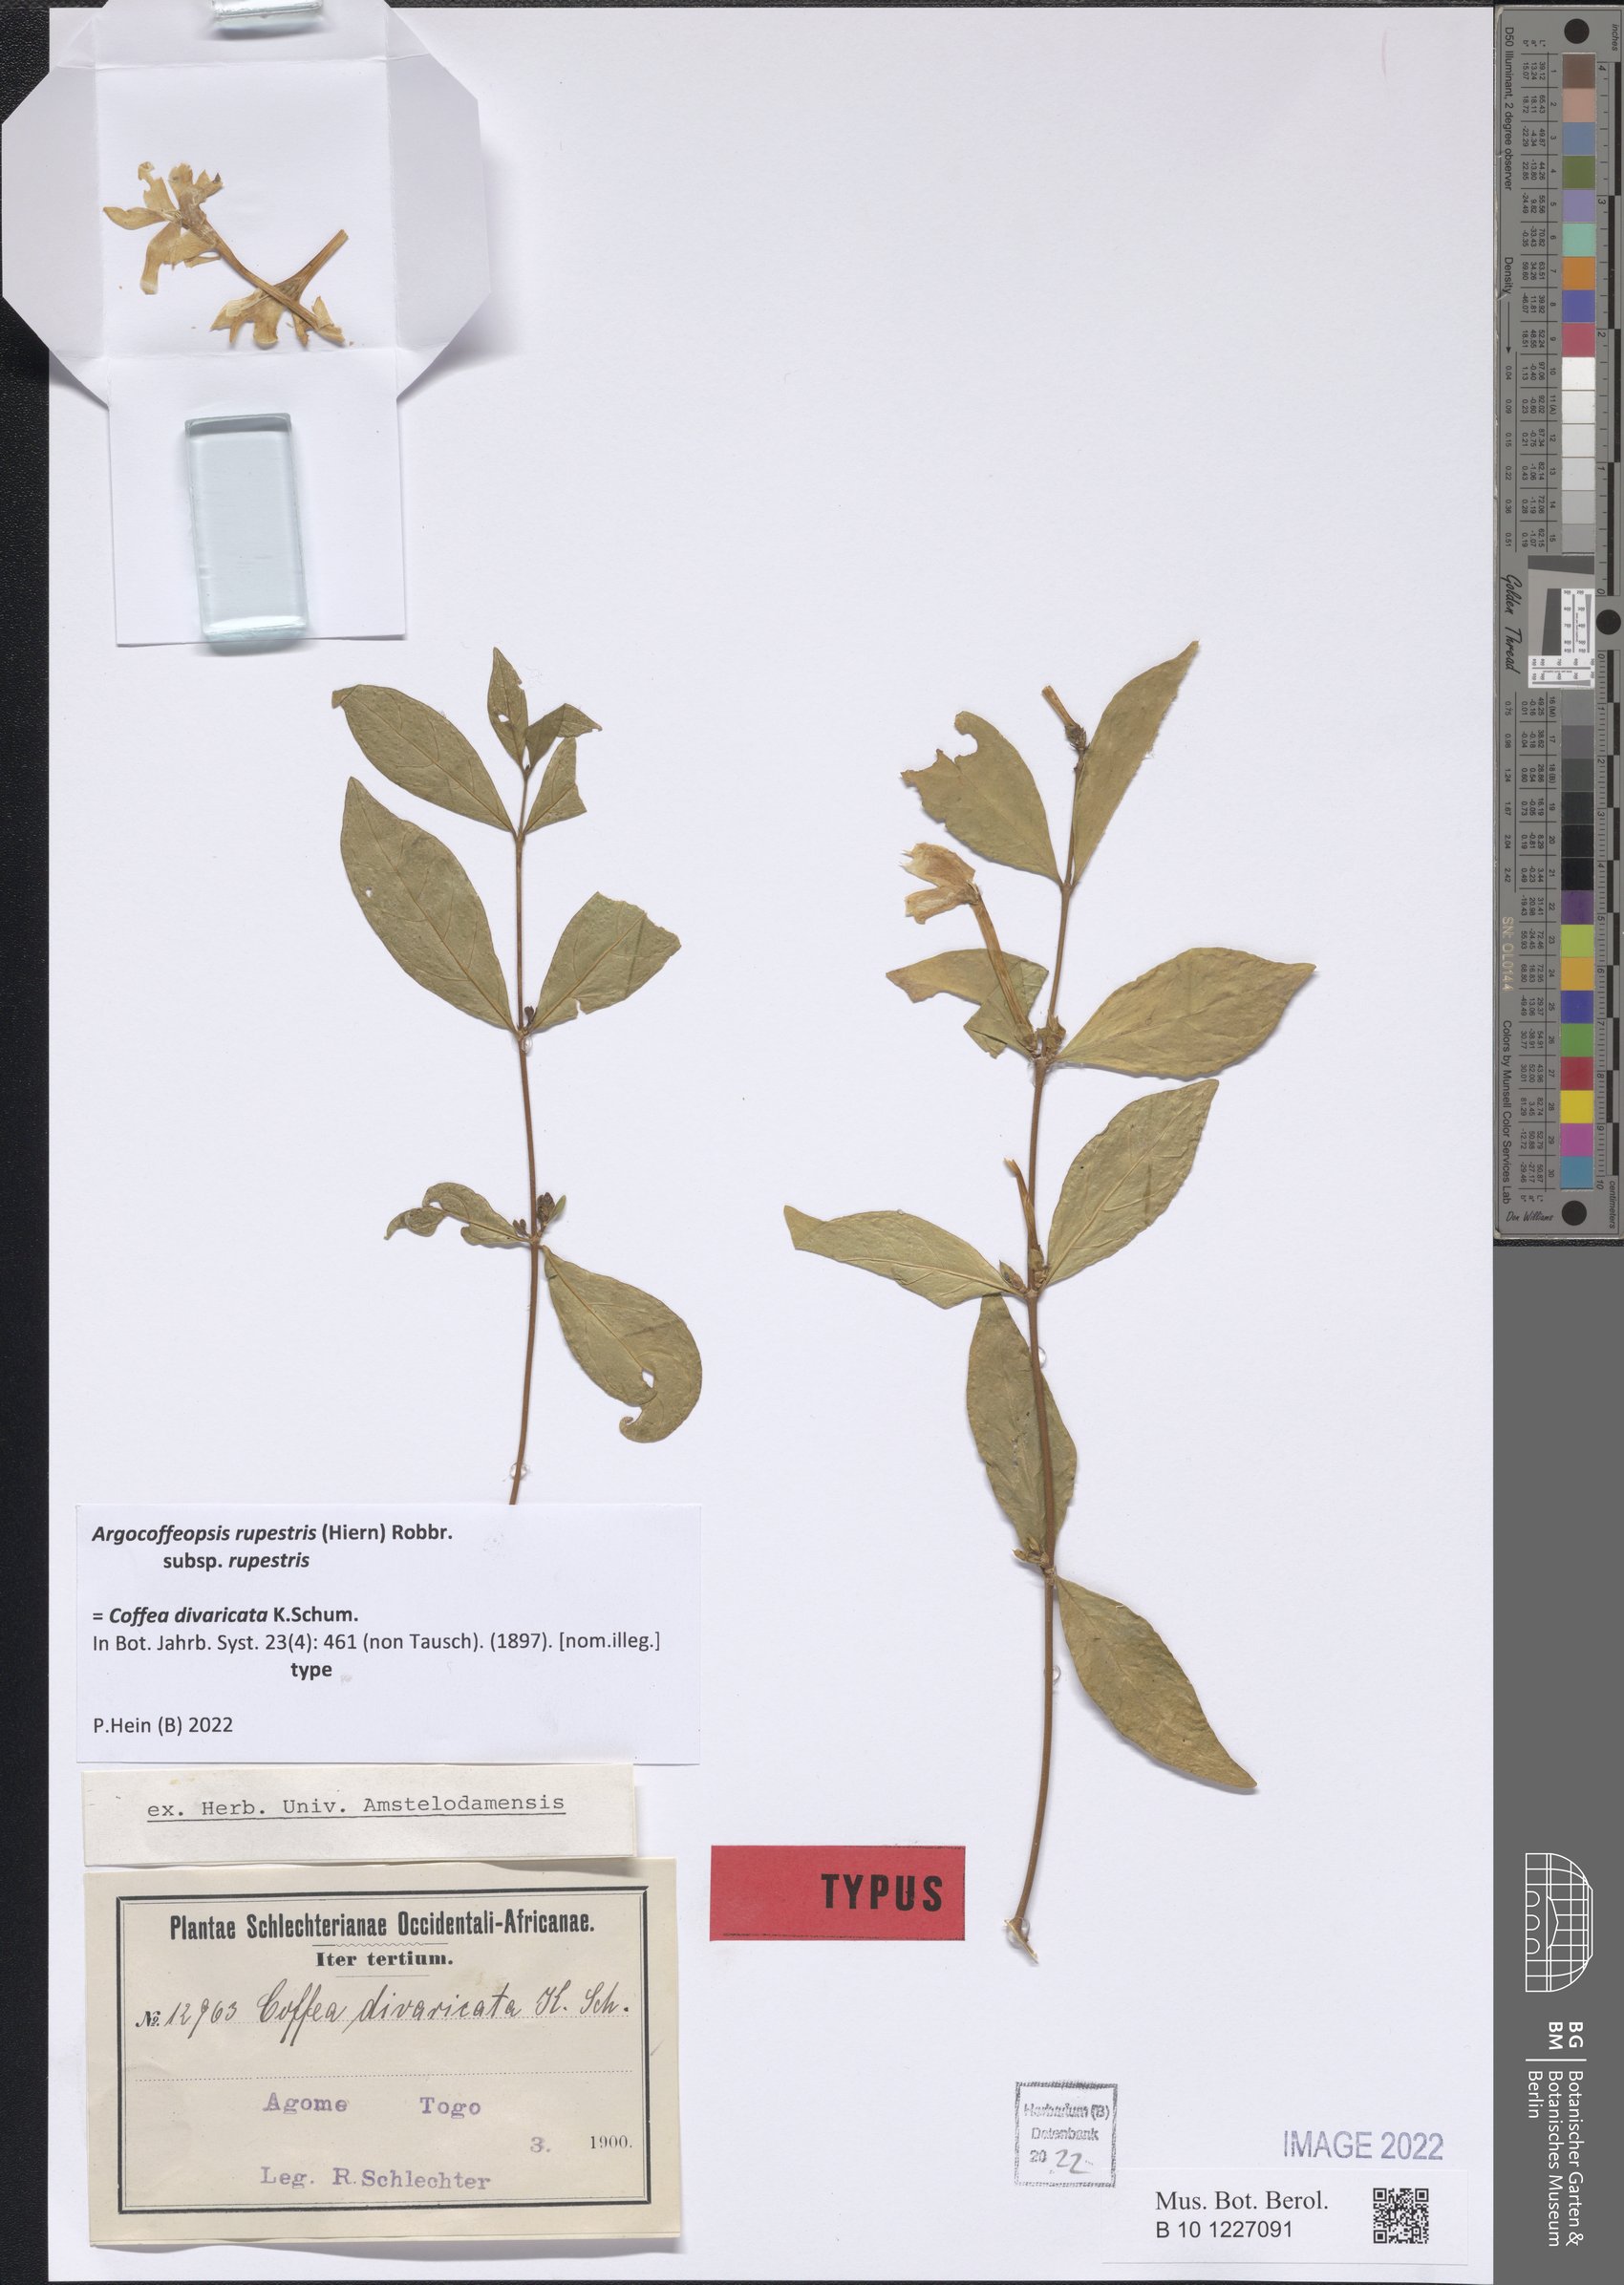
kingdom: Plantae
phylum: Tracheophyta
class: Magnoliopsida
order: Gentianales
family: Rubiaceae
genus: Argocoffeopsis
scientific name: Argocoffeopsis rupestris
